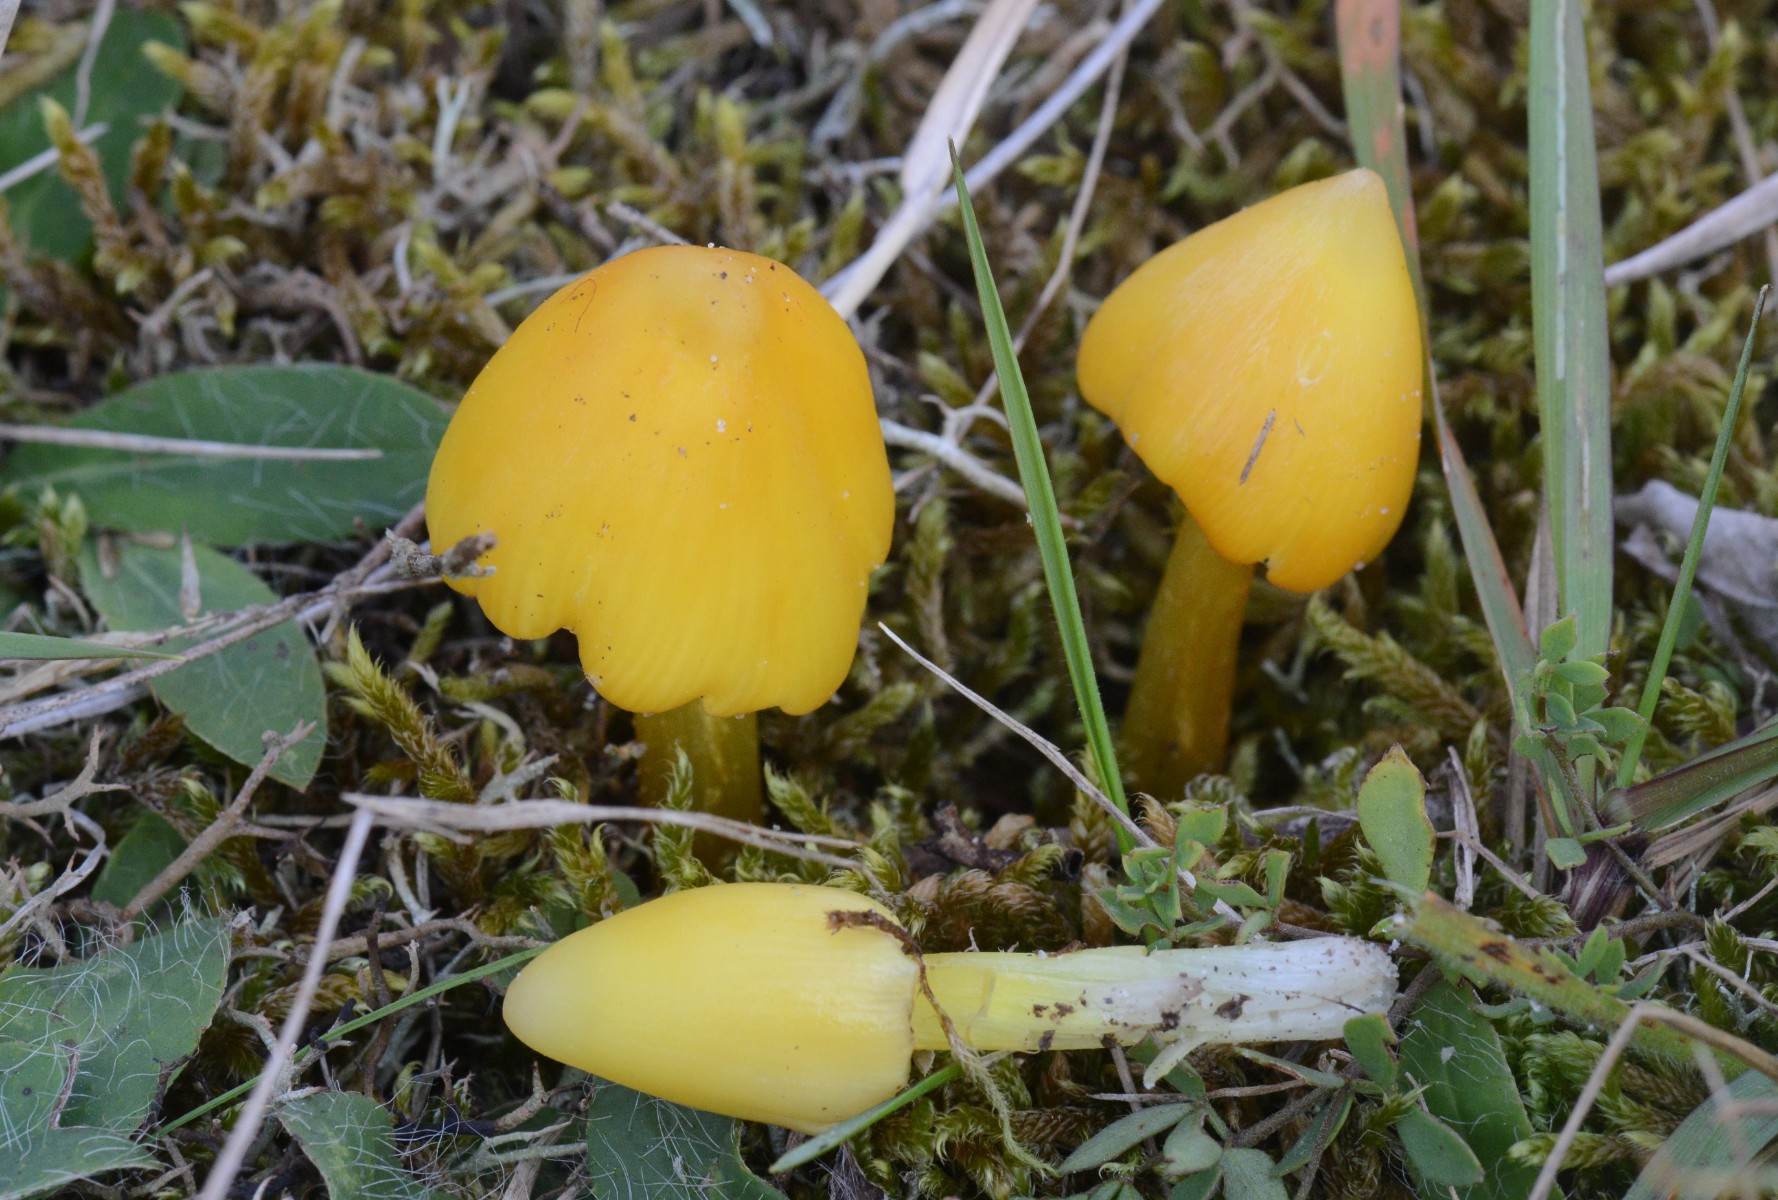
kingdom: Fungi
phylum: Basidiomycota
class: Agaricomycetes
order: Agaricales
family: Hygrophoraceae
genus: Hygrocybe
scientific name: Hygrocybe acutoconica
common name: spidspuklet vokshat
